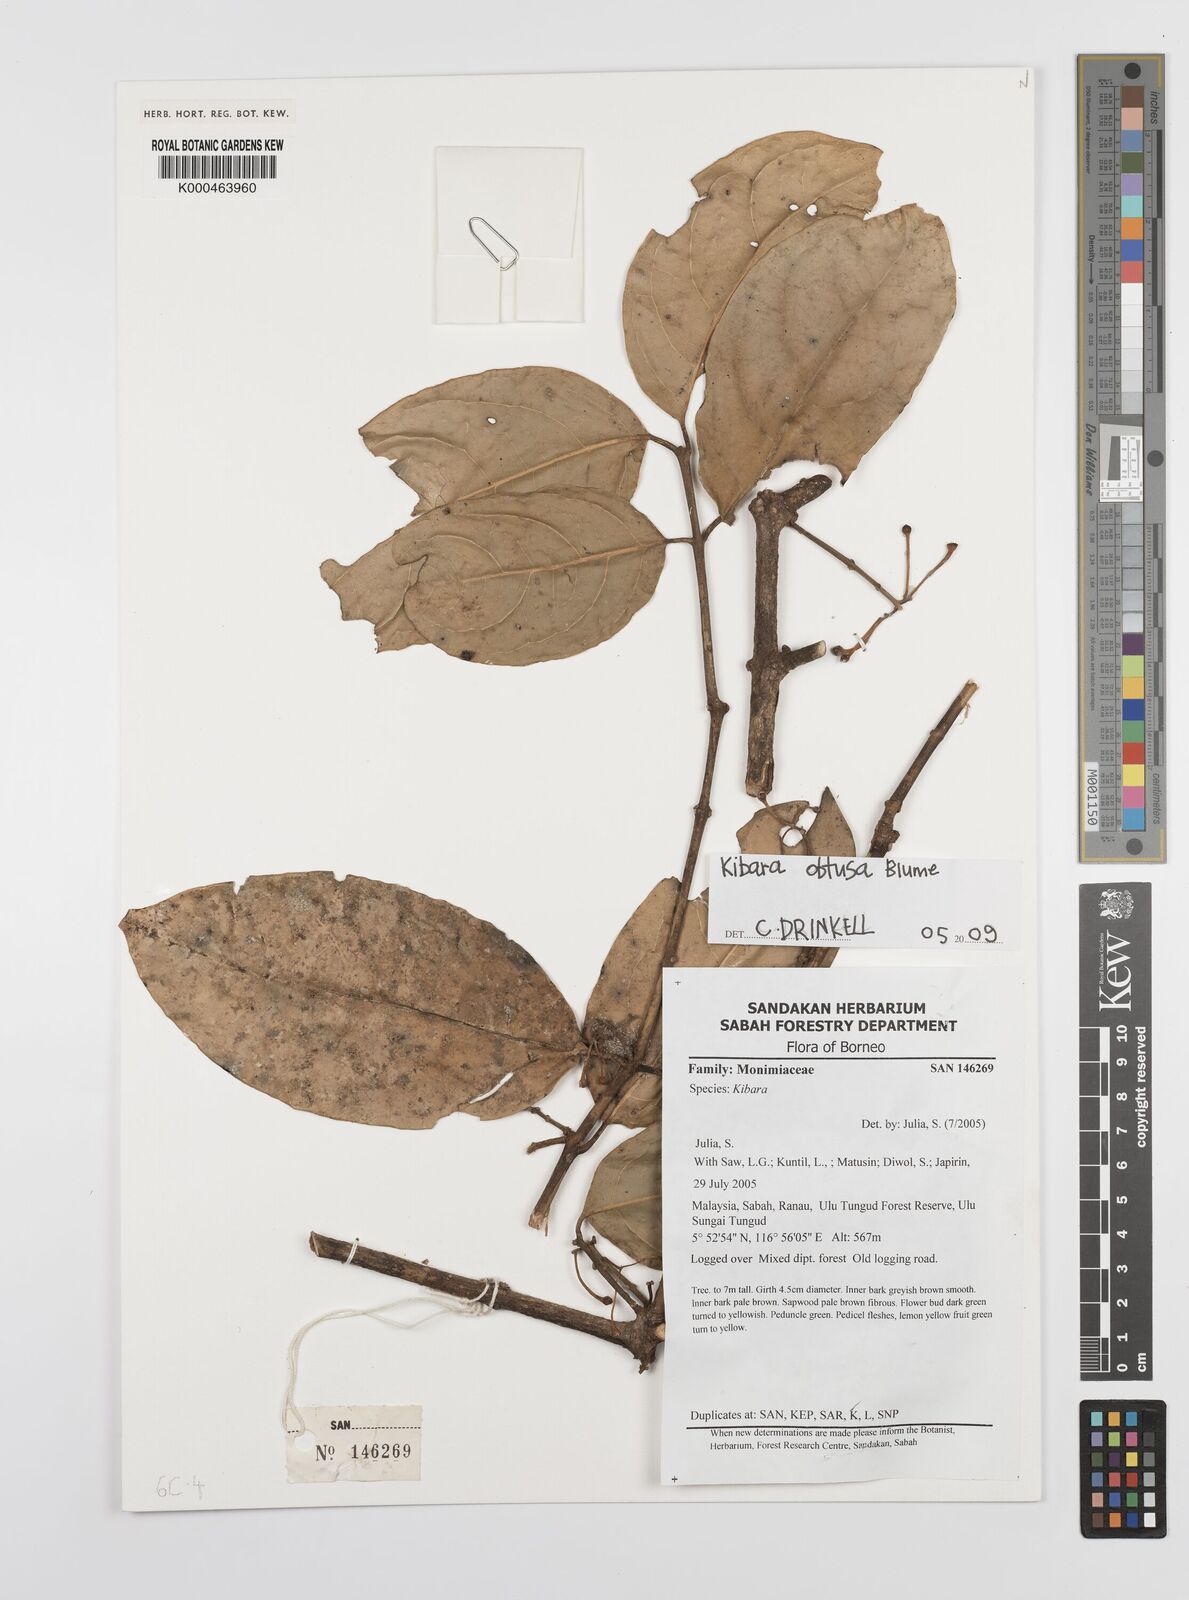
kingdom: Plantae
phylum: Tracheophyta
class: Magnoliopsida
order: Laurales
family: Monimiaceae
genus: Kibara
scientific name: Kibara obtusa
